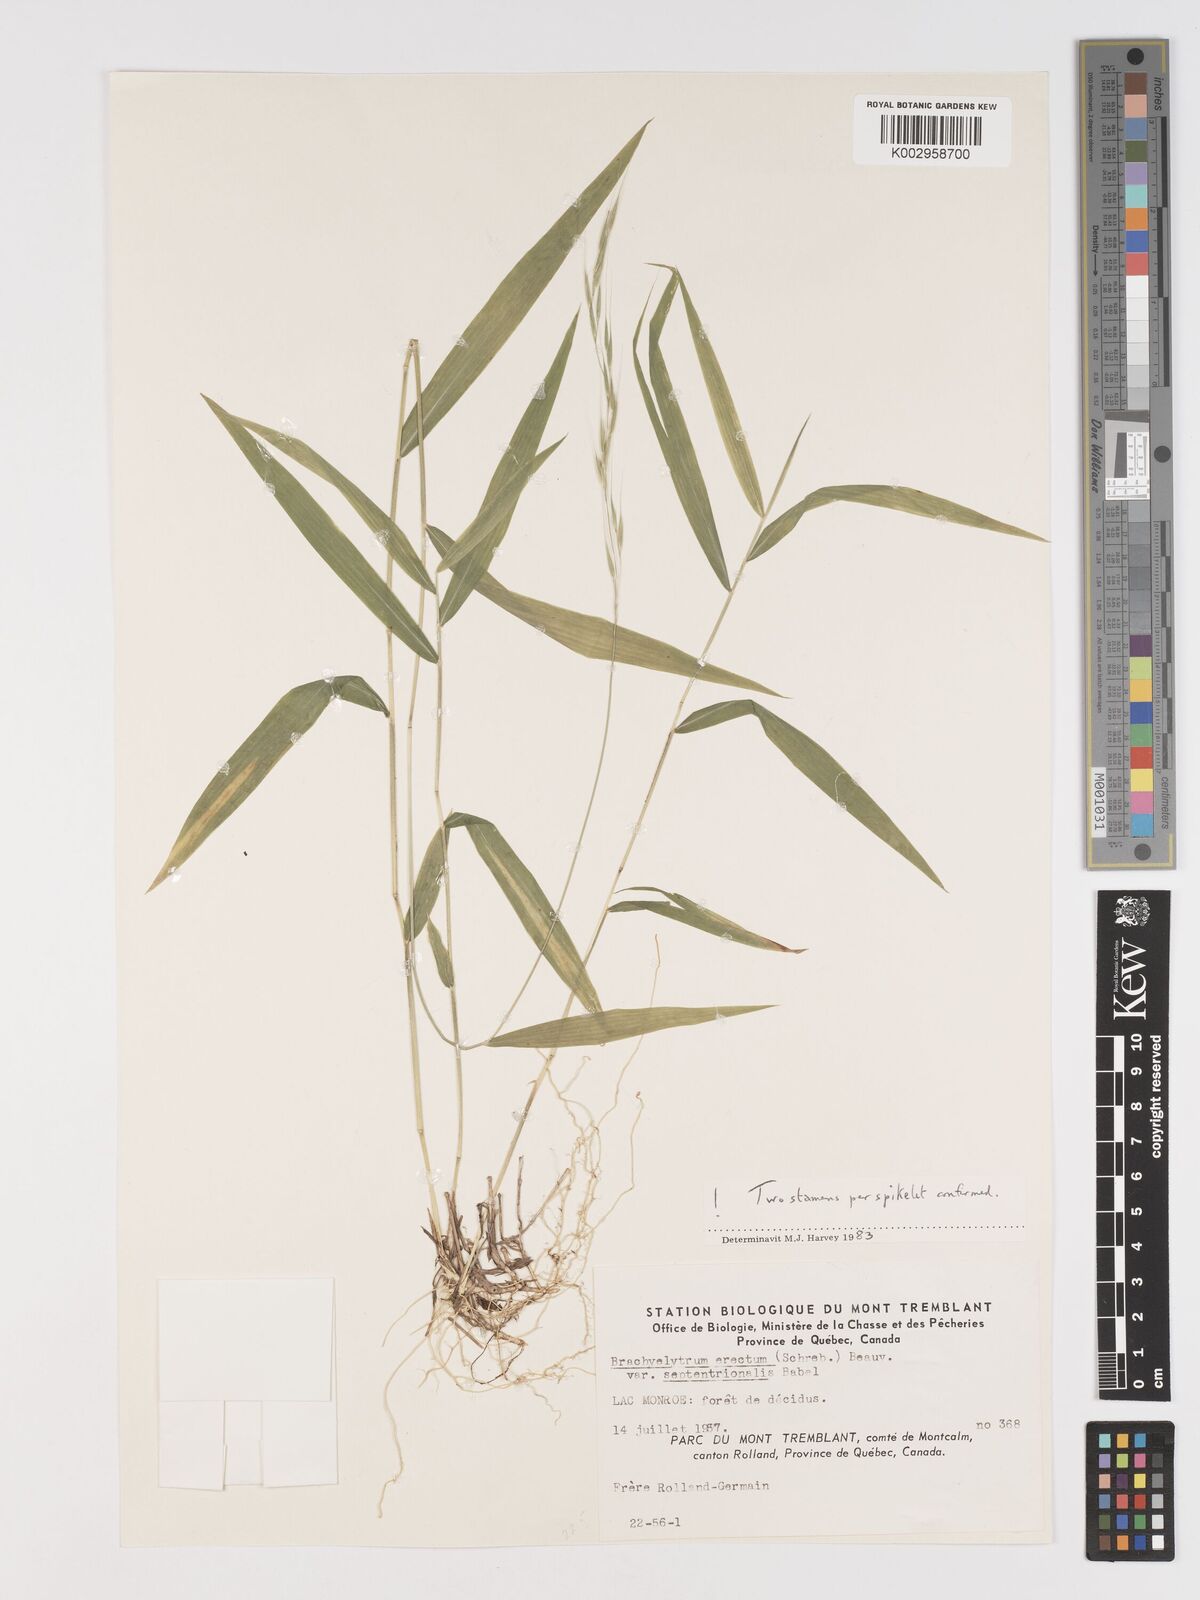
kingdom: Plantae
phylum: Tracheophyta
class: Liliopsida
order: Poales
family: Poaceae
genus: Brachyelytrum
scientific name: Brachyelytrum aristosum
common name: Northern shorthusk
